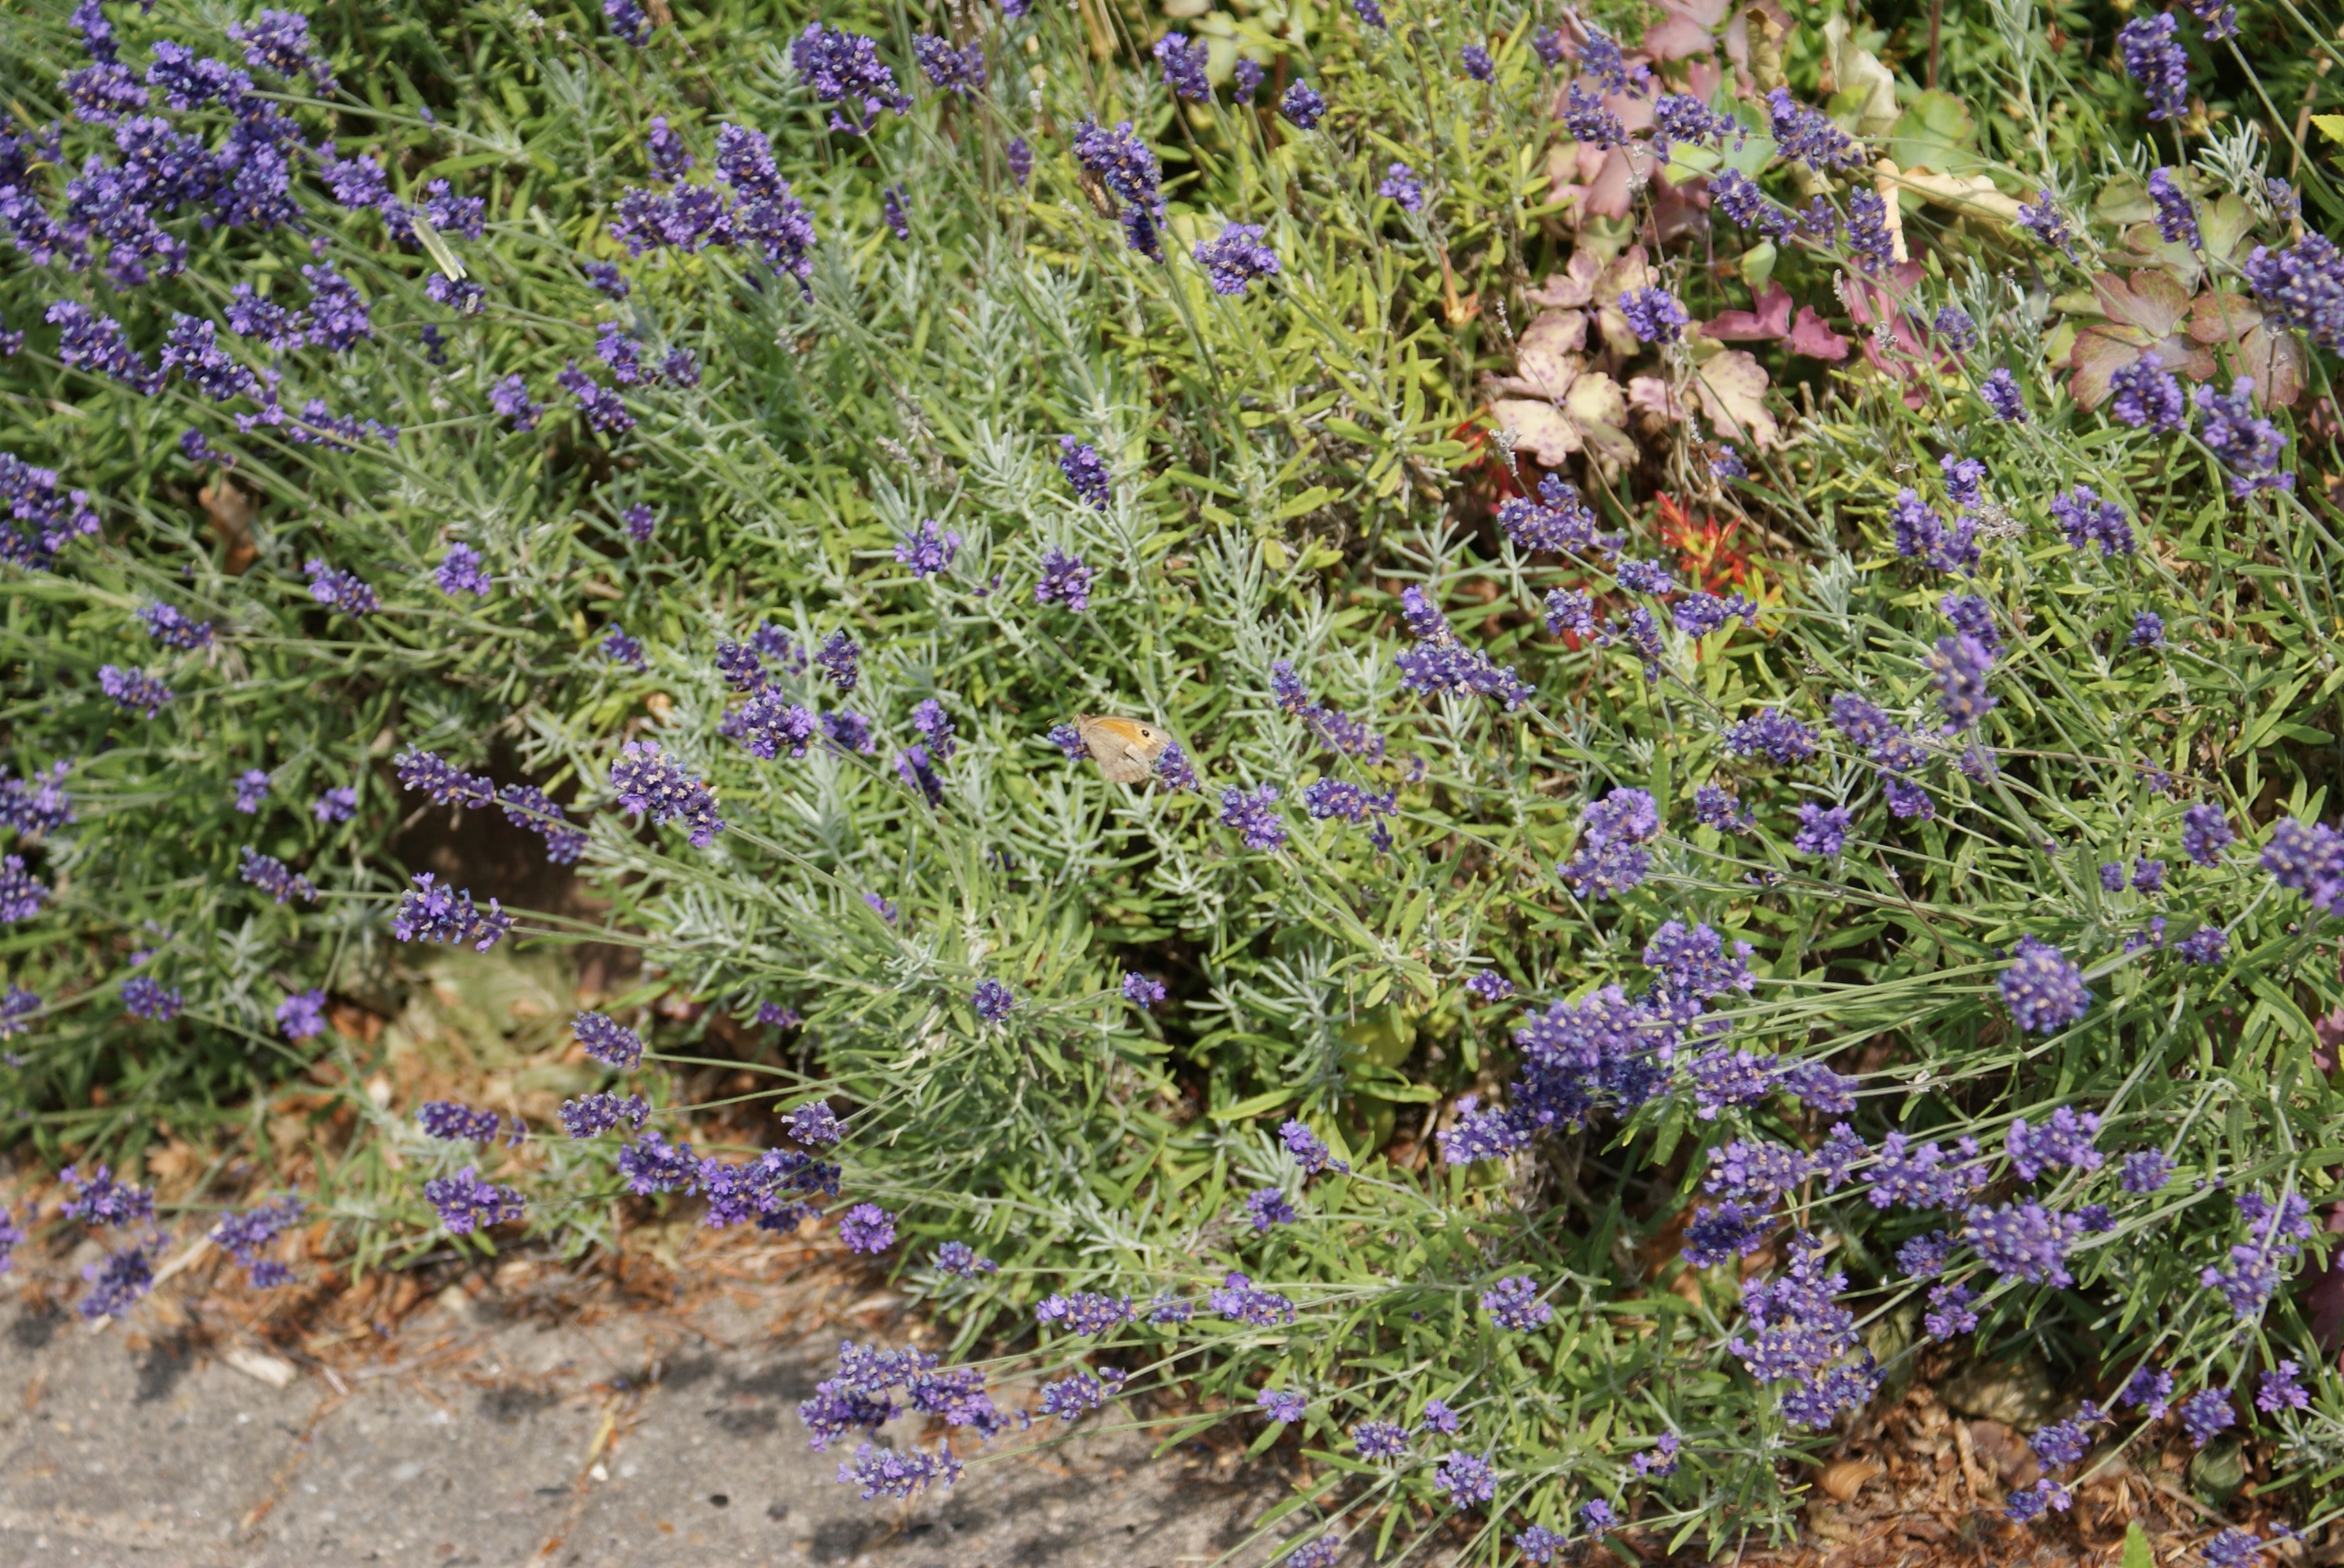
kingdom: Animalia
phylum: Arthropoda
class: Insecta
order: Lepidoptera
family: Nymphalidae
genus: Maniola
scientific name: Maniola jurtina
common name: Græsrandøje
